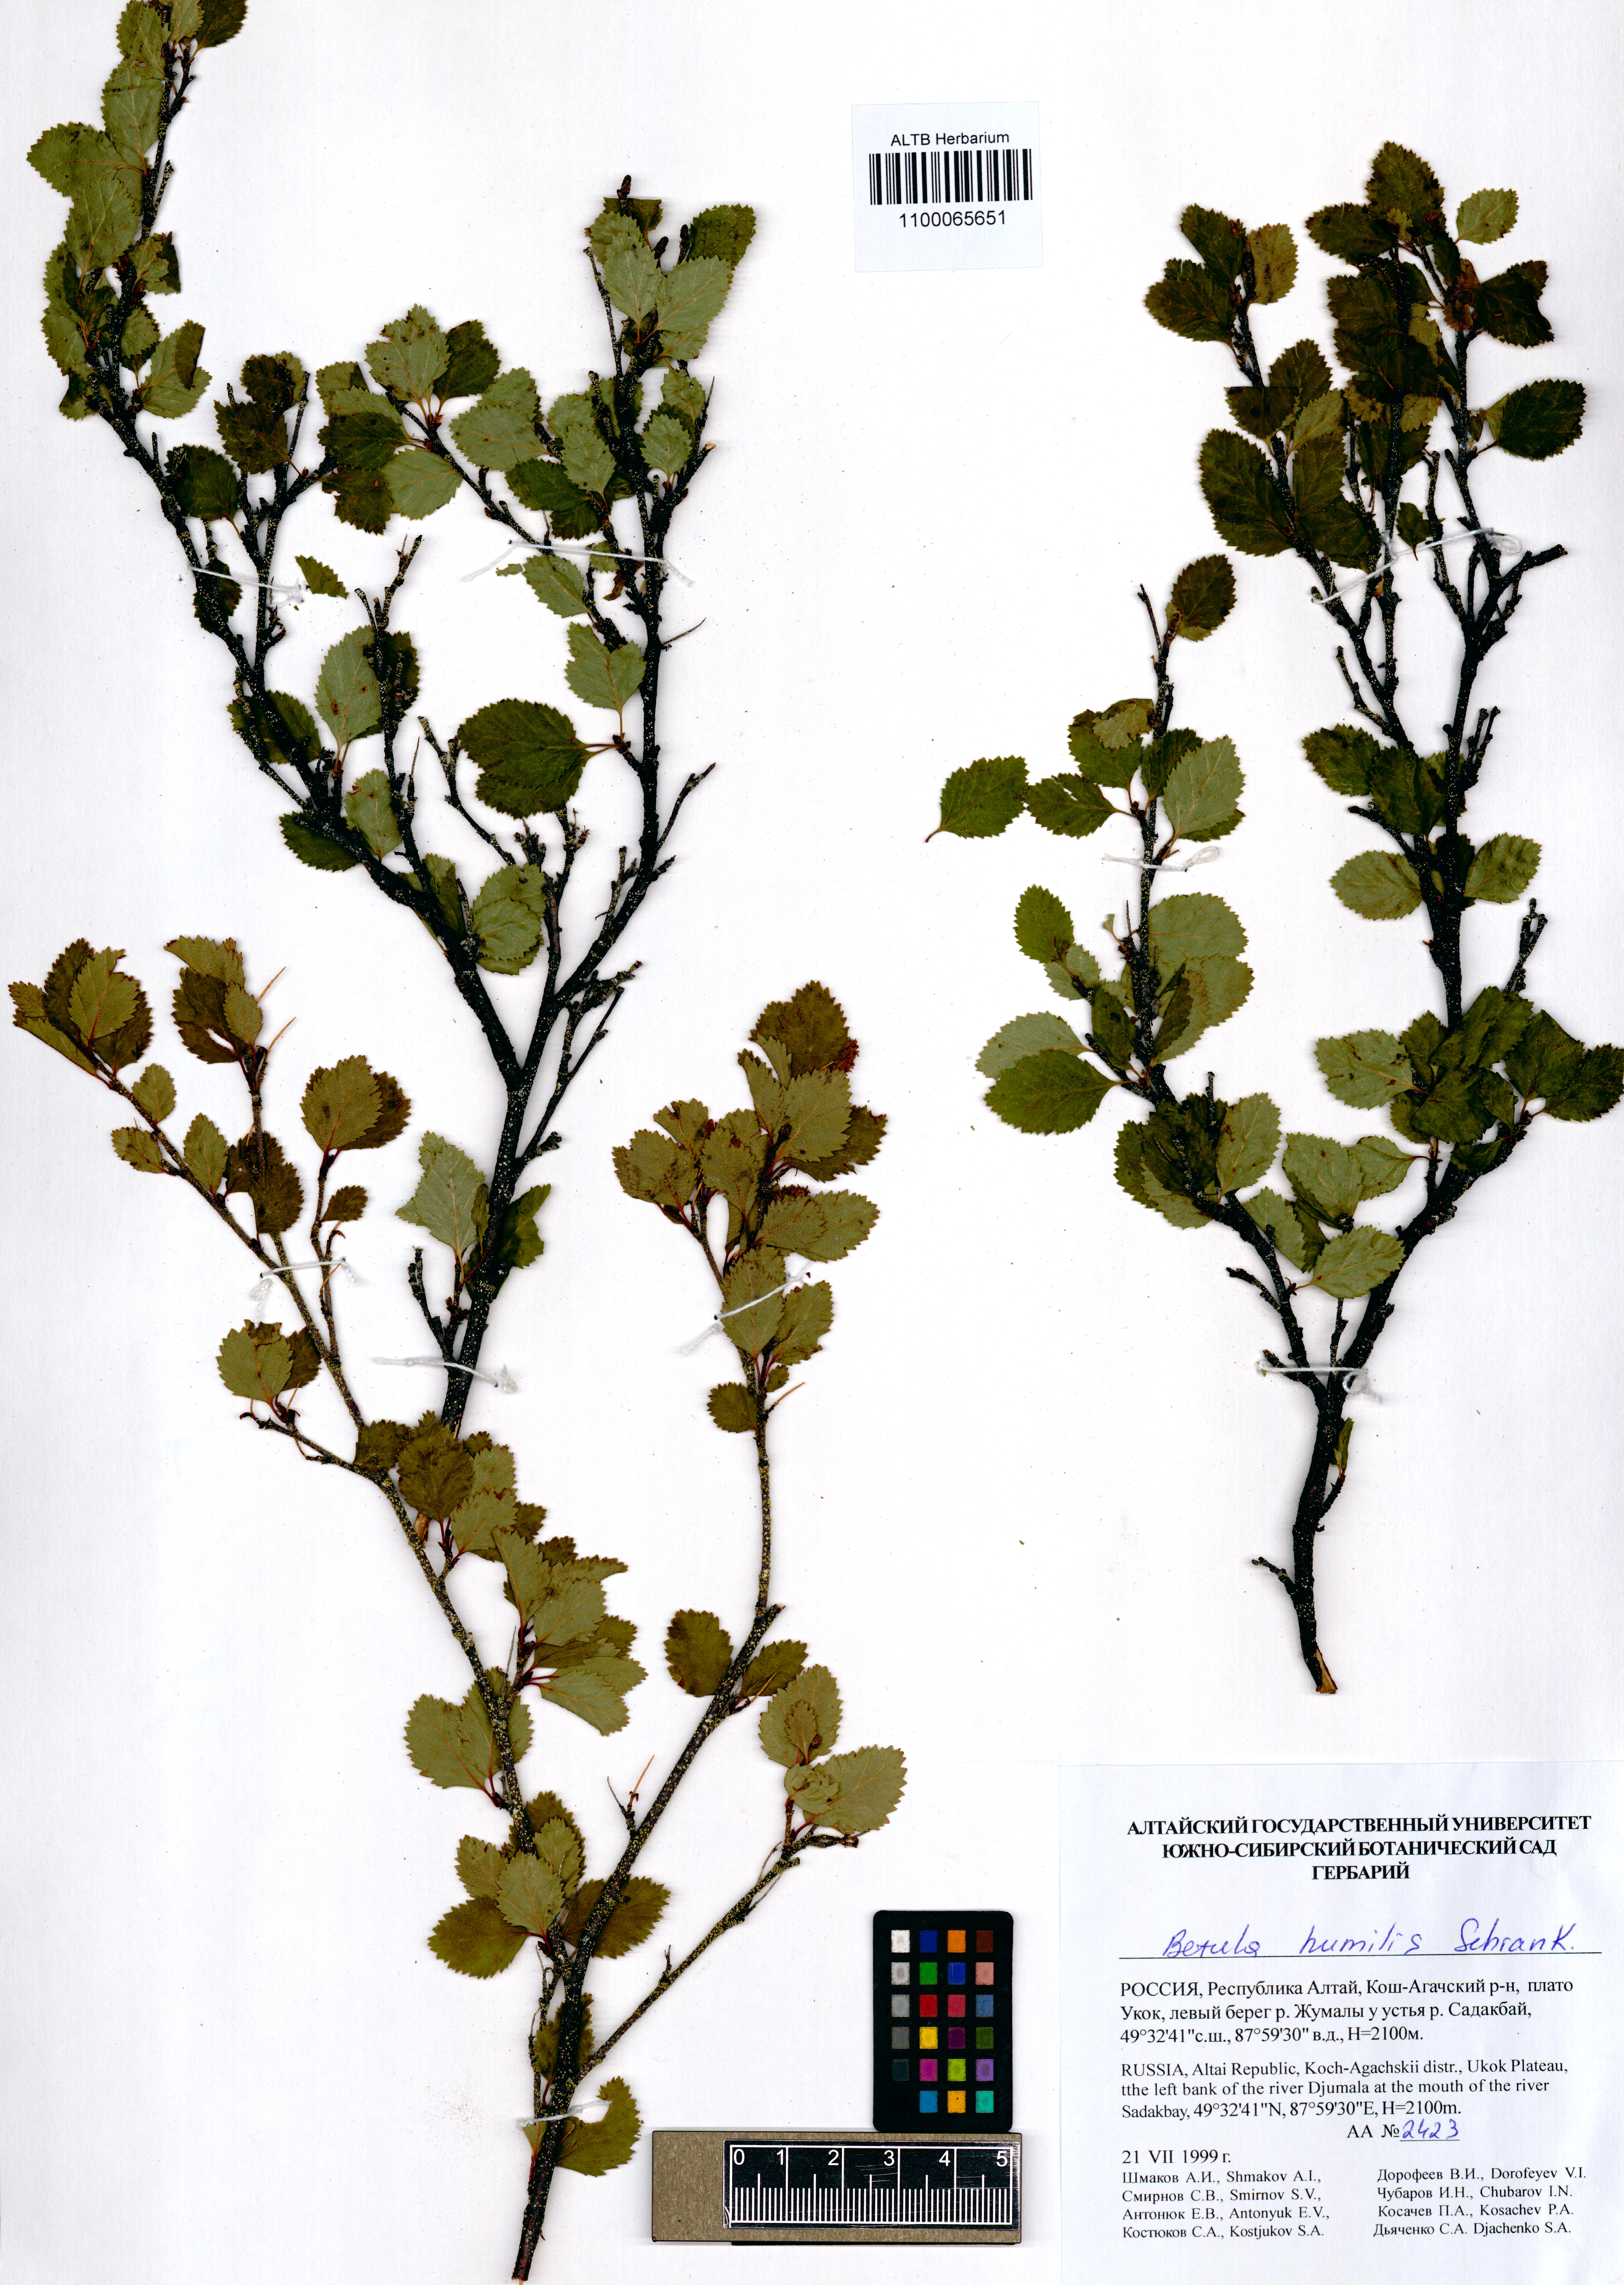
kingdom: Plantae
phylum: Tracheophyta
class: Magnoliopsida
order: Fagales
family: Betulaceae
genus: Betula
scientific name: Betula humilis
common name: Shrubby birch
